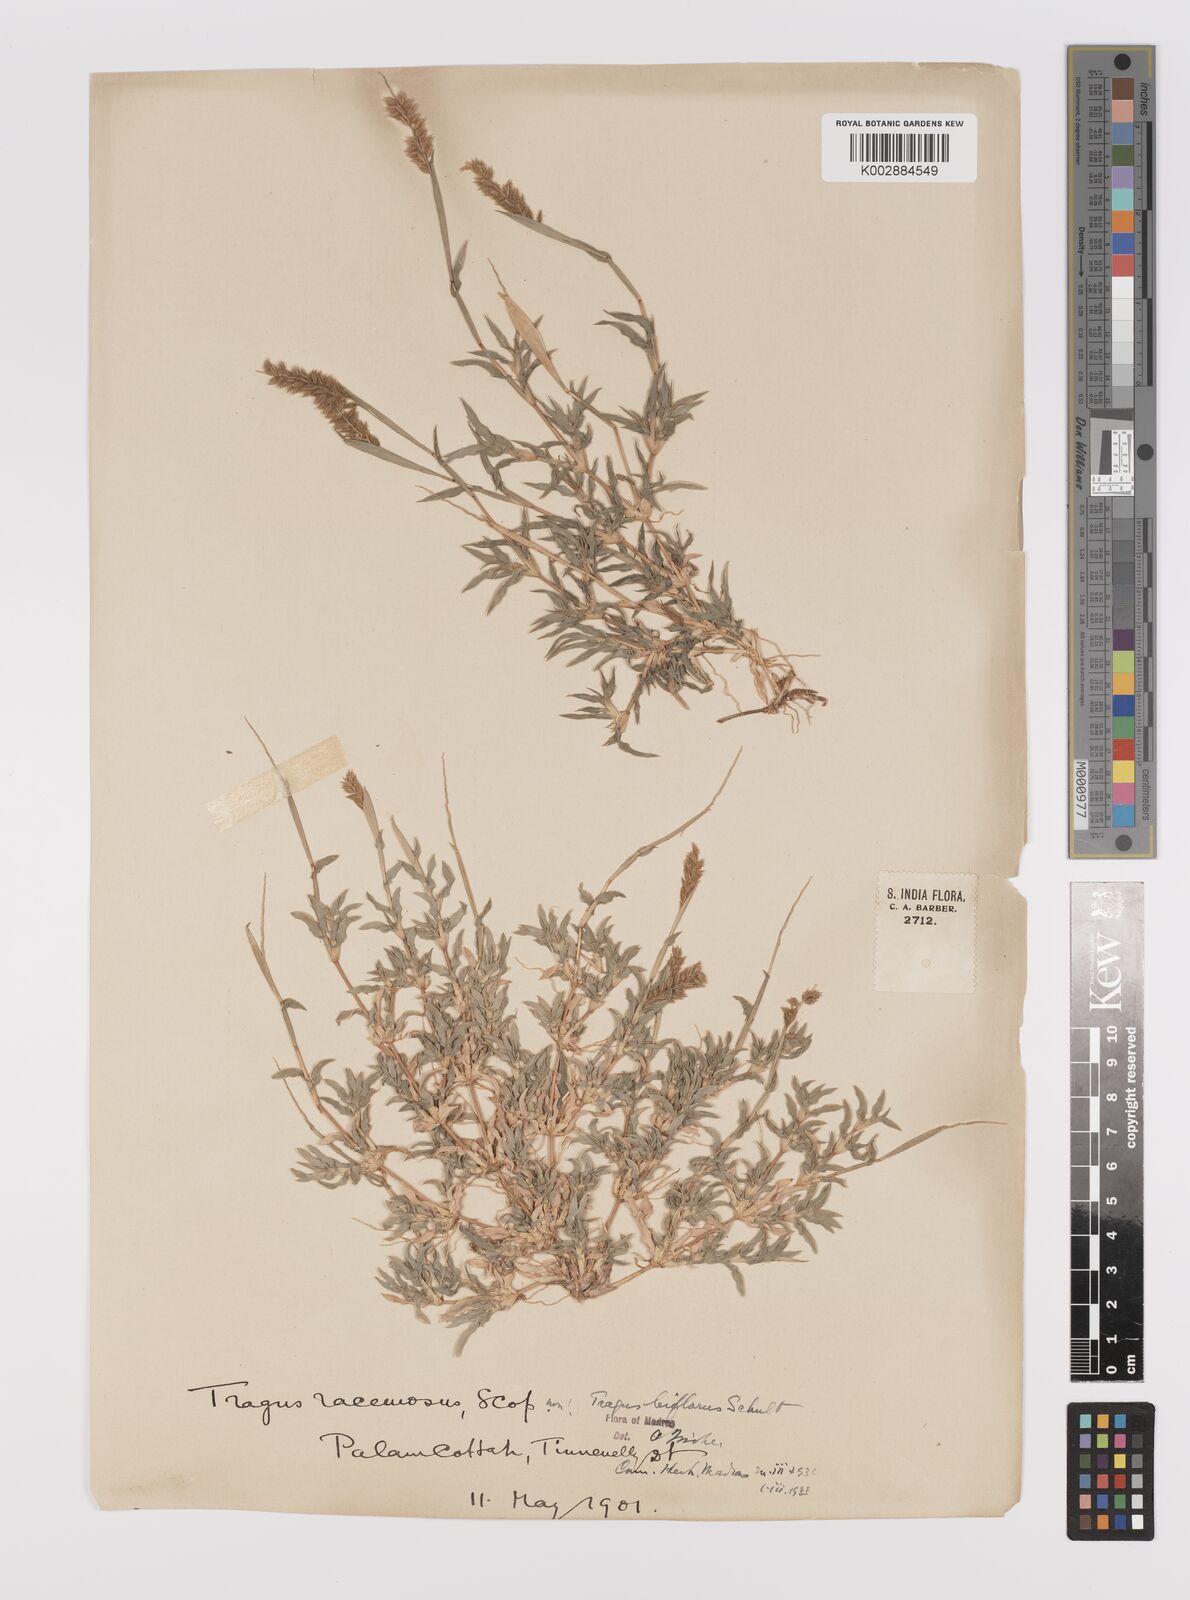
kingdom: Plantae
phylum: Tracheophyta
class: Liliopsida
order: Poales
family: Poaceae
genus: Tragus
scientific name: Tragus mongolorum
